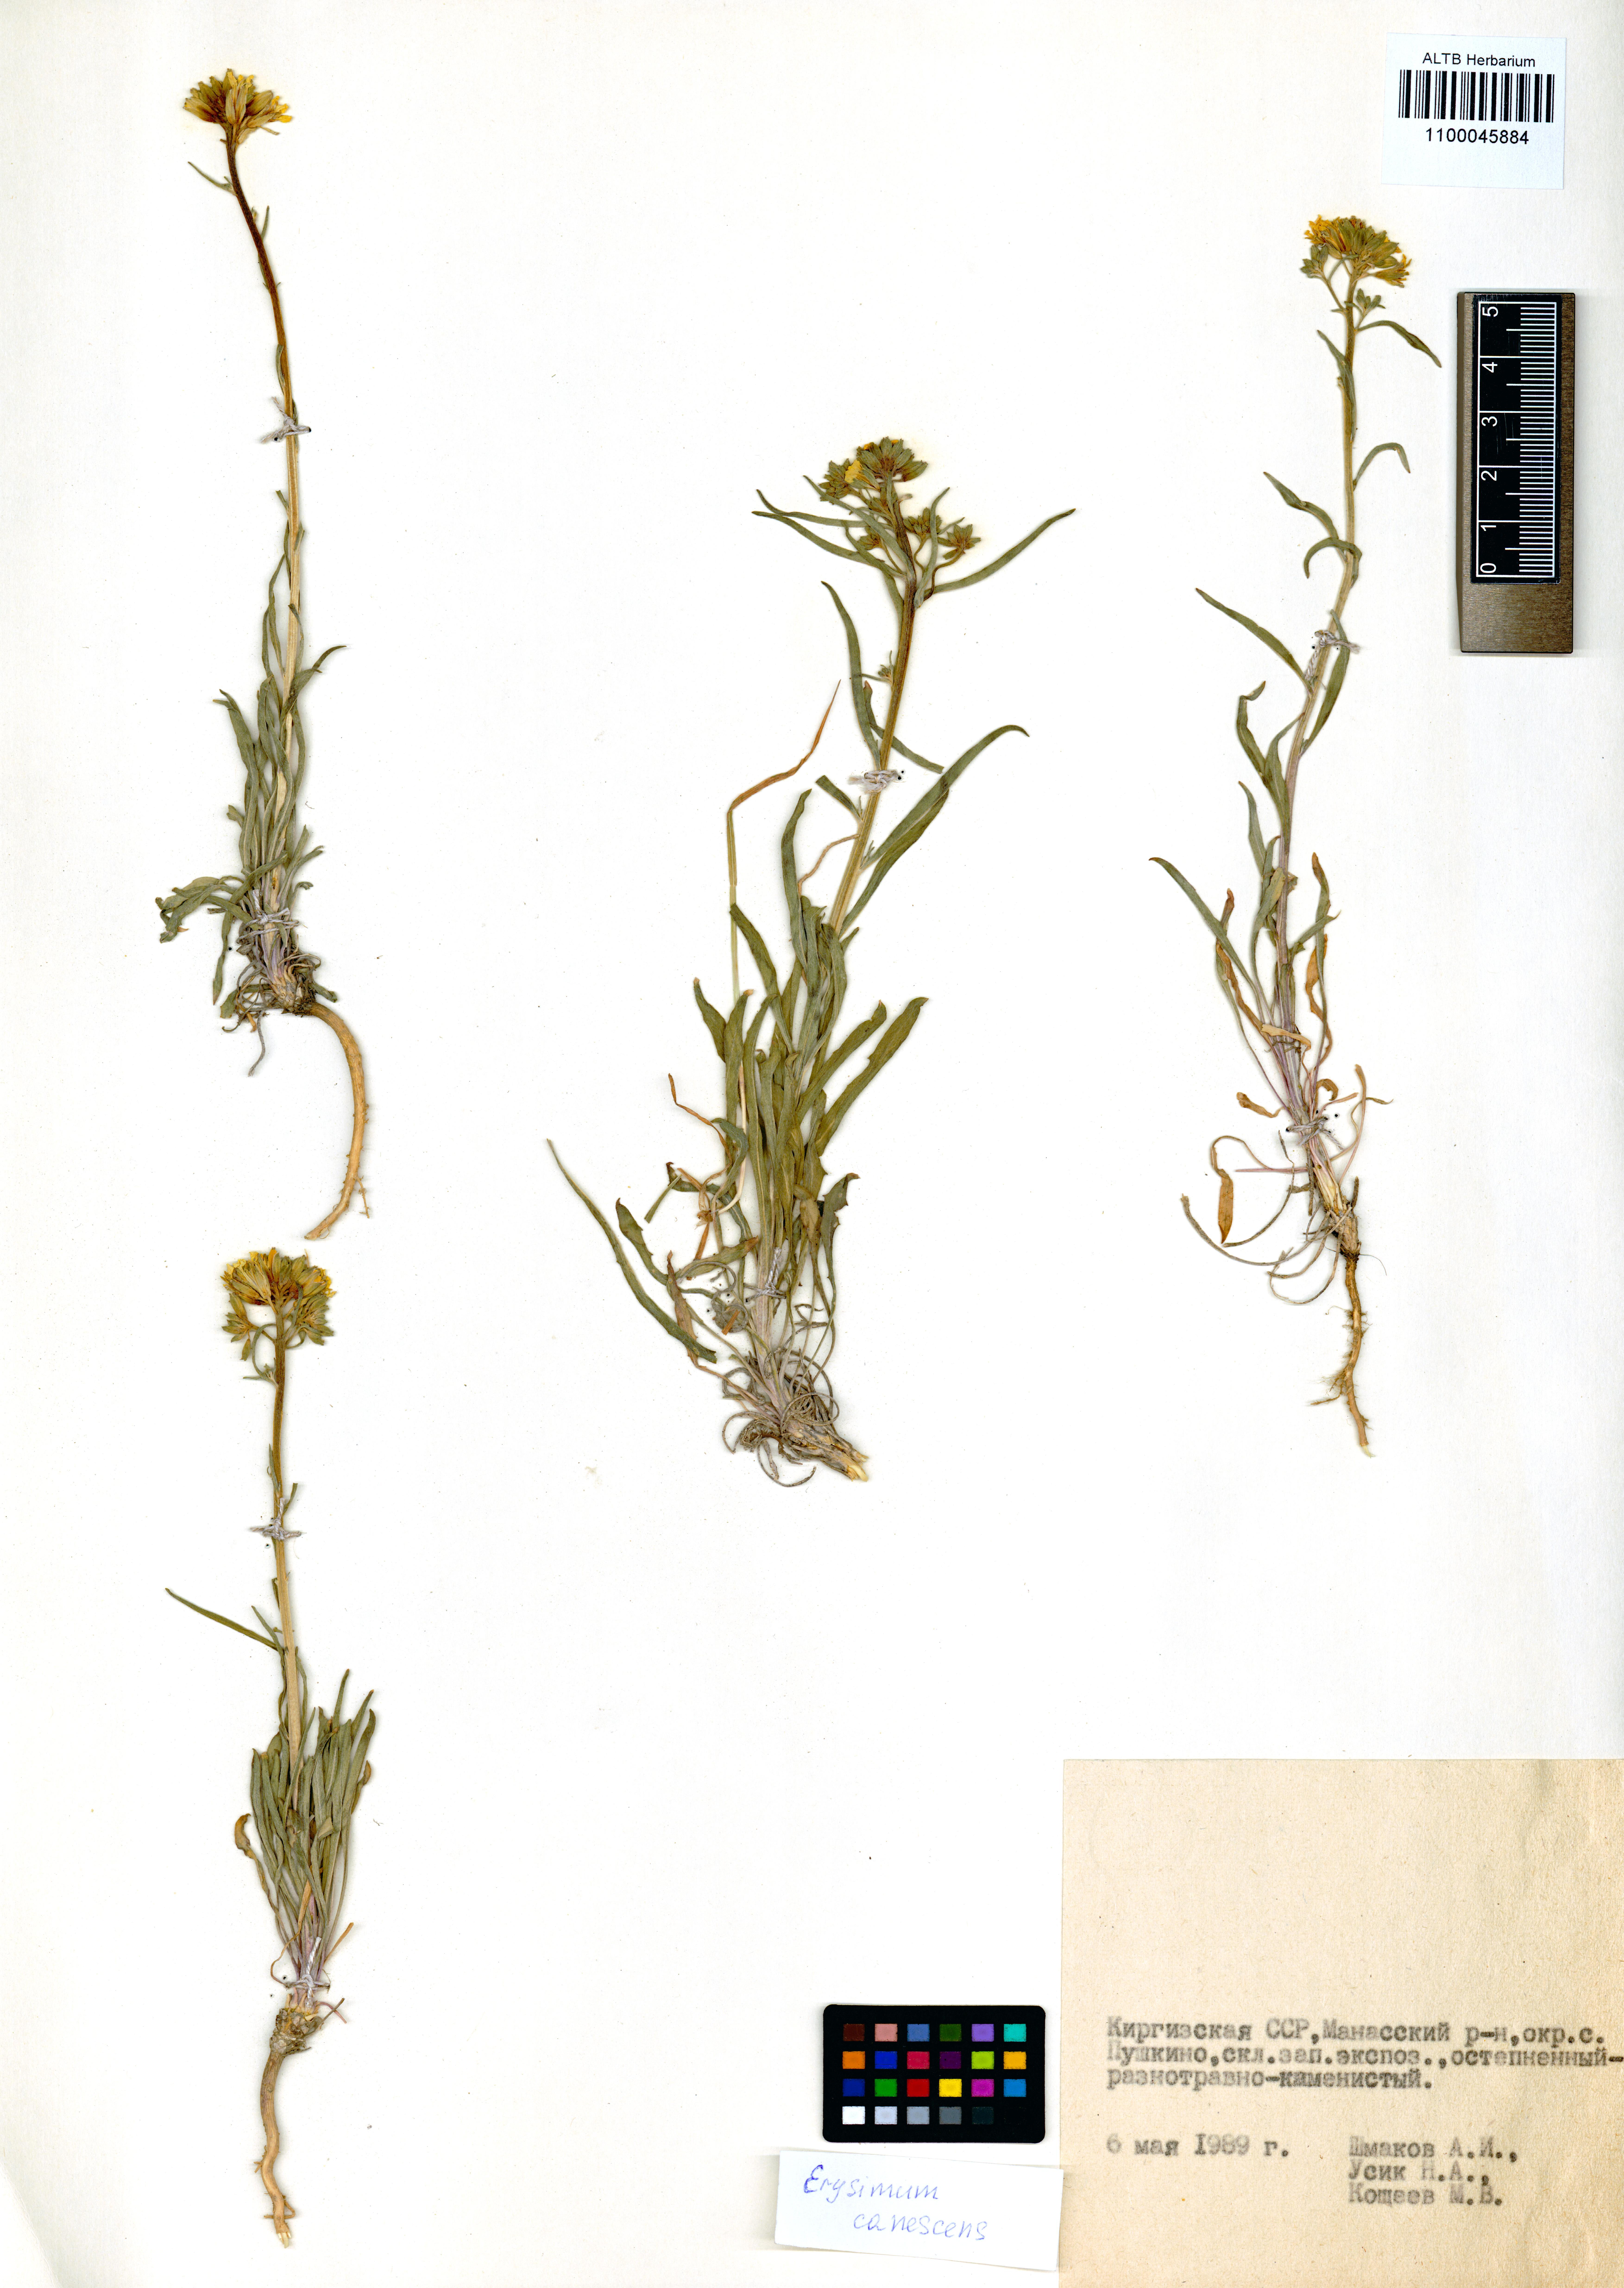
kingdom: Plantae
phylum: Tracheophyta
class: Magnoliopsida
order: Brassicales
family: Brassicaceae
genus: Erysimum
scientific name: Erysimum canescens
